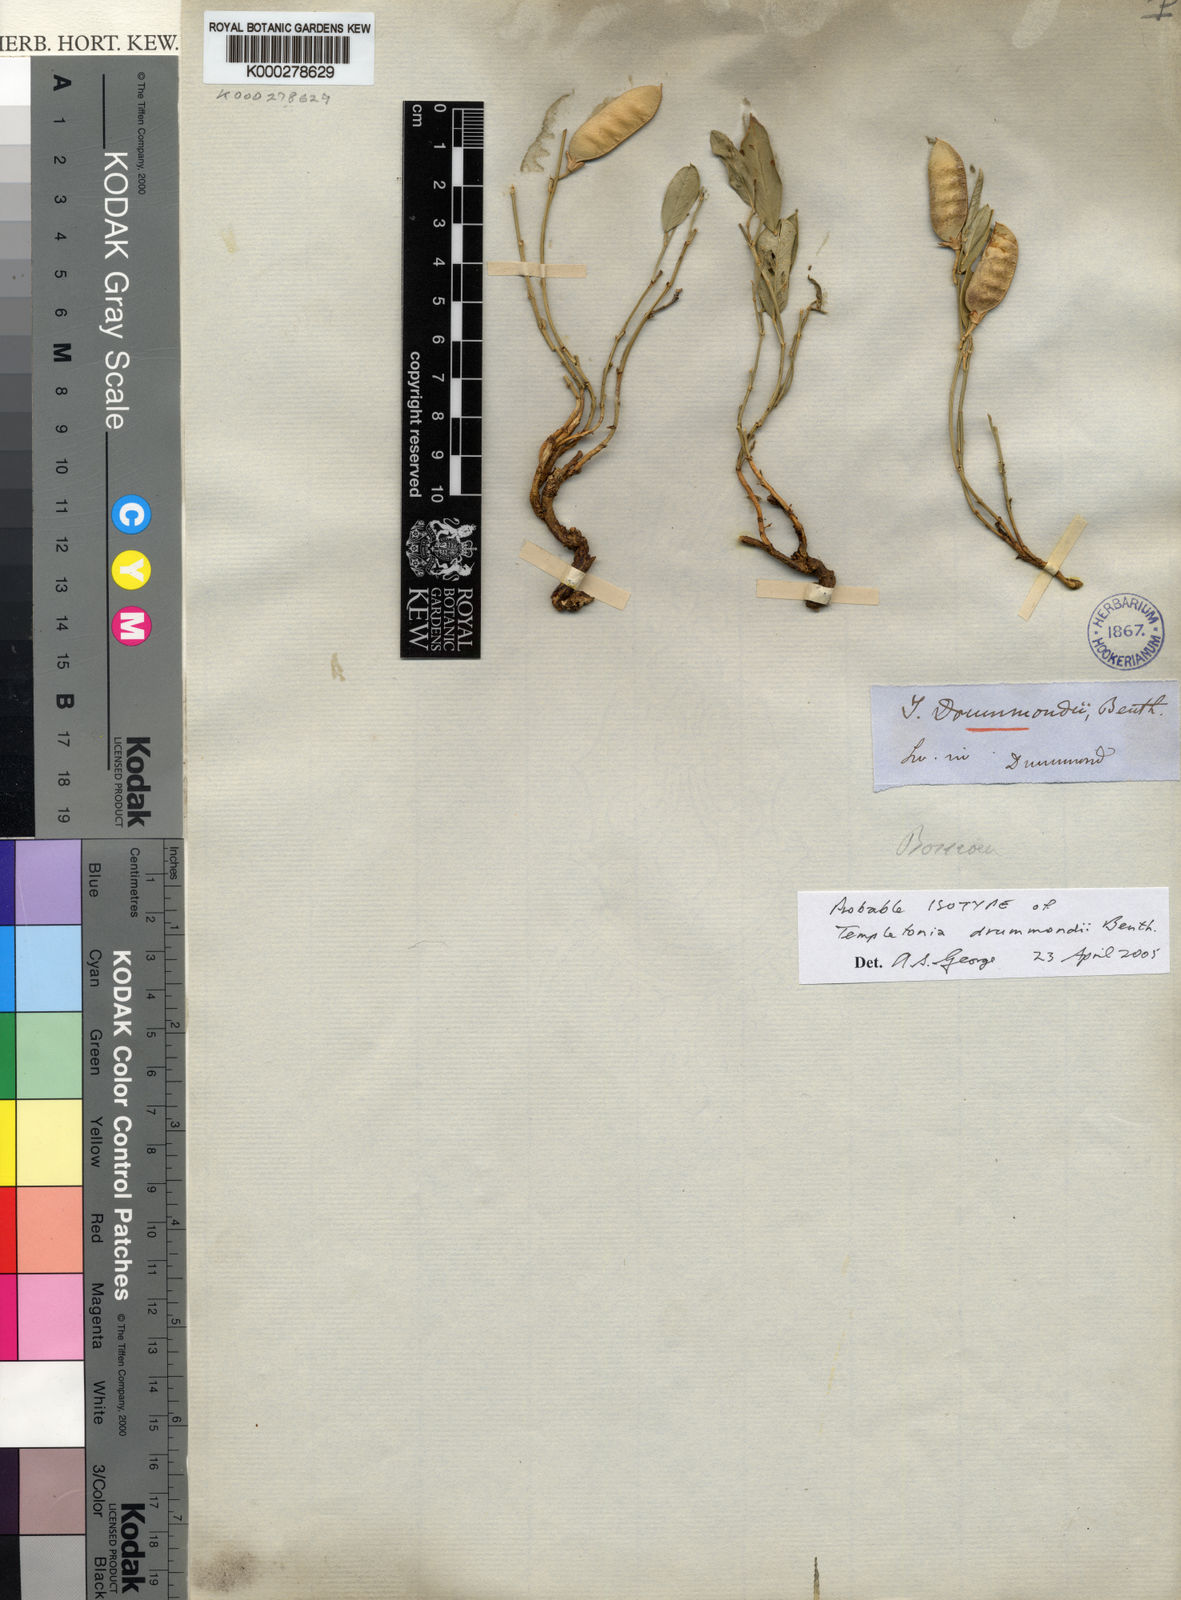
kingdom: Plantae
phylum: Tracheophyta
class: Magnoliopsida
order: Fabales
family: Fabaceae
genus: Templetonia
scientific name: Templetonia drummondii
